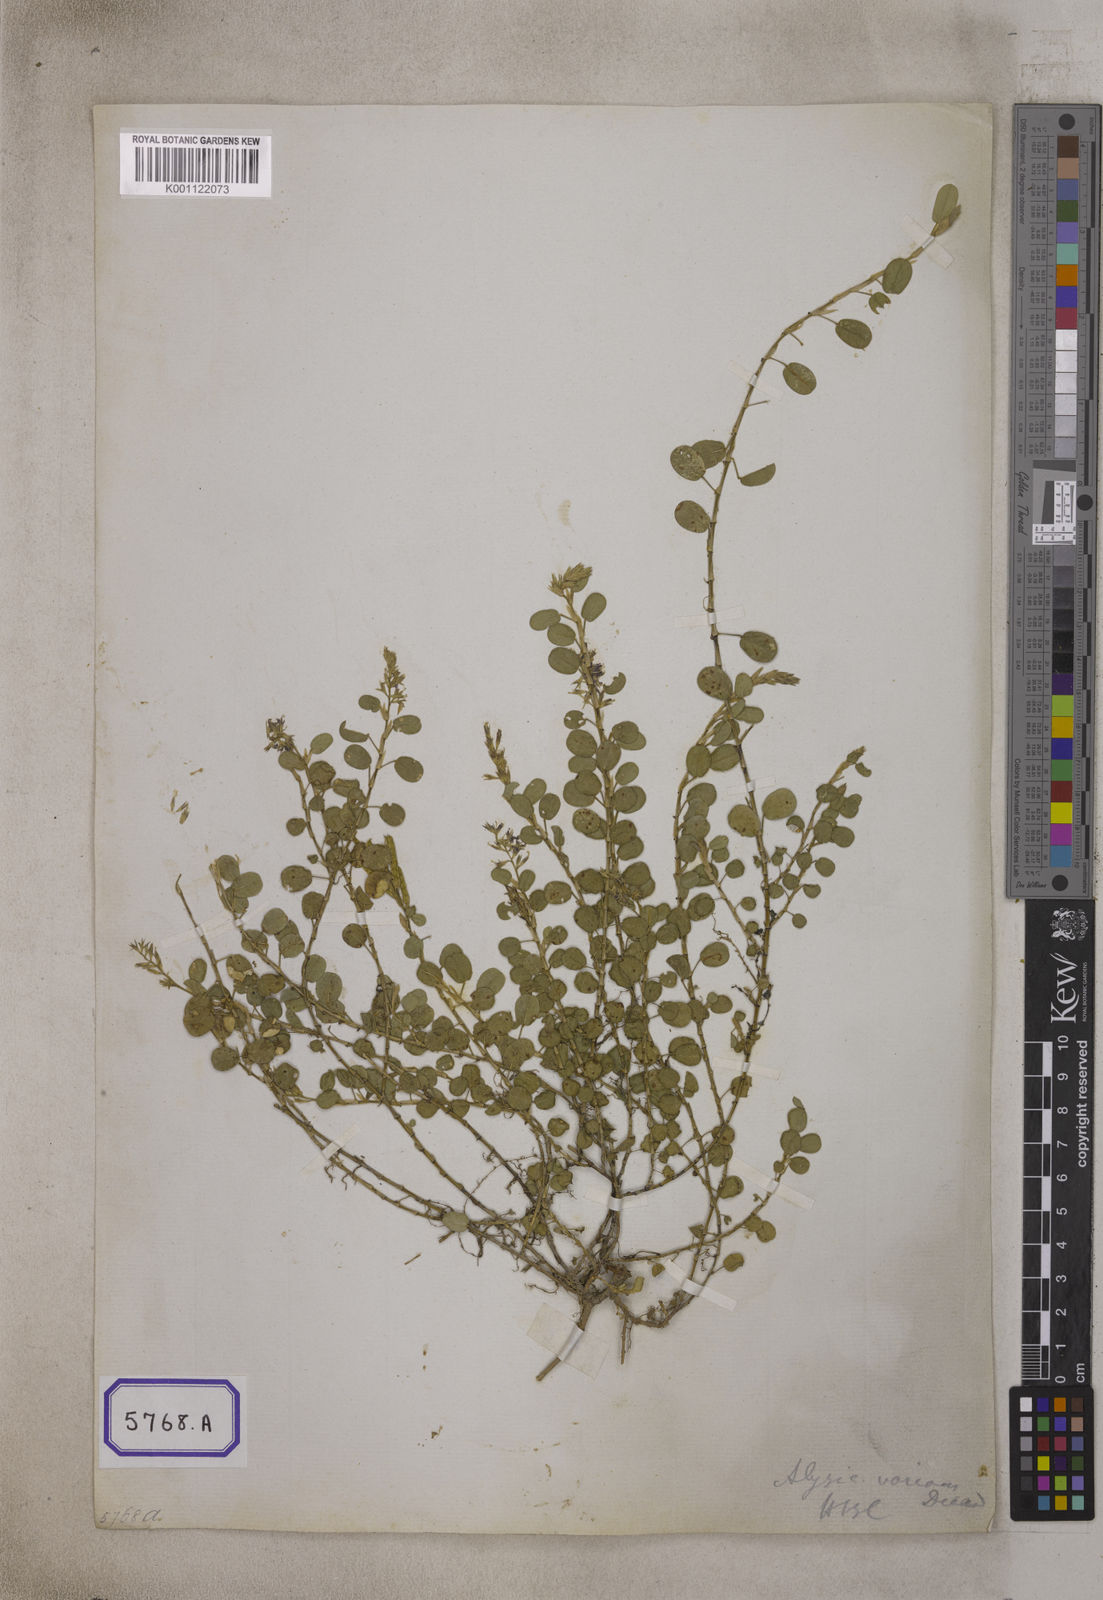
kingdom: Plantae
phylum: Tracheophyta
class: Magnoliopsida
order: Fabales
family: Fabaceae
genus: Alysicarpus
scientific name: Alysicarpus vaginalis
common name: White moneywort
